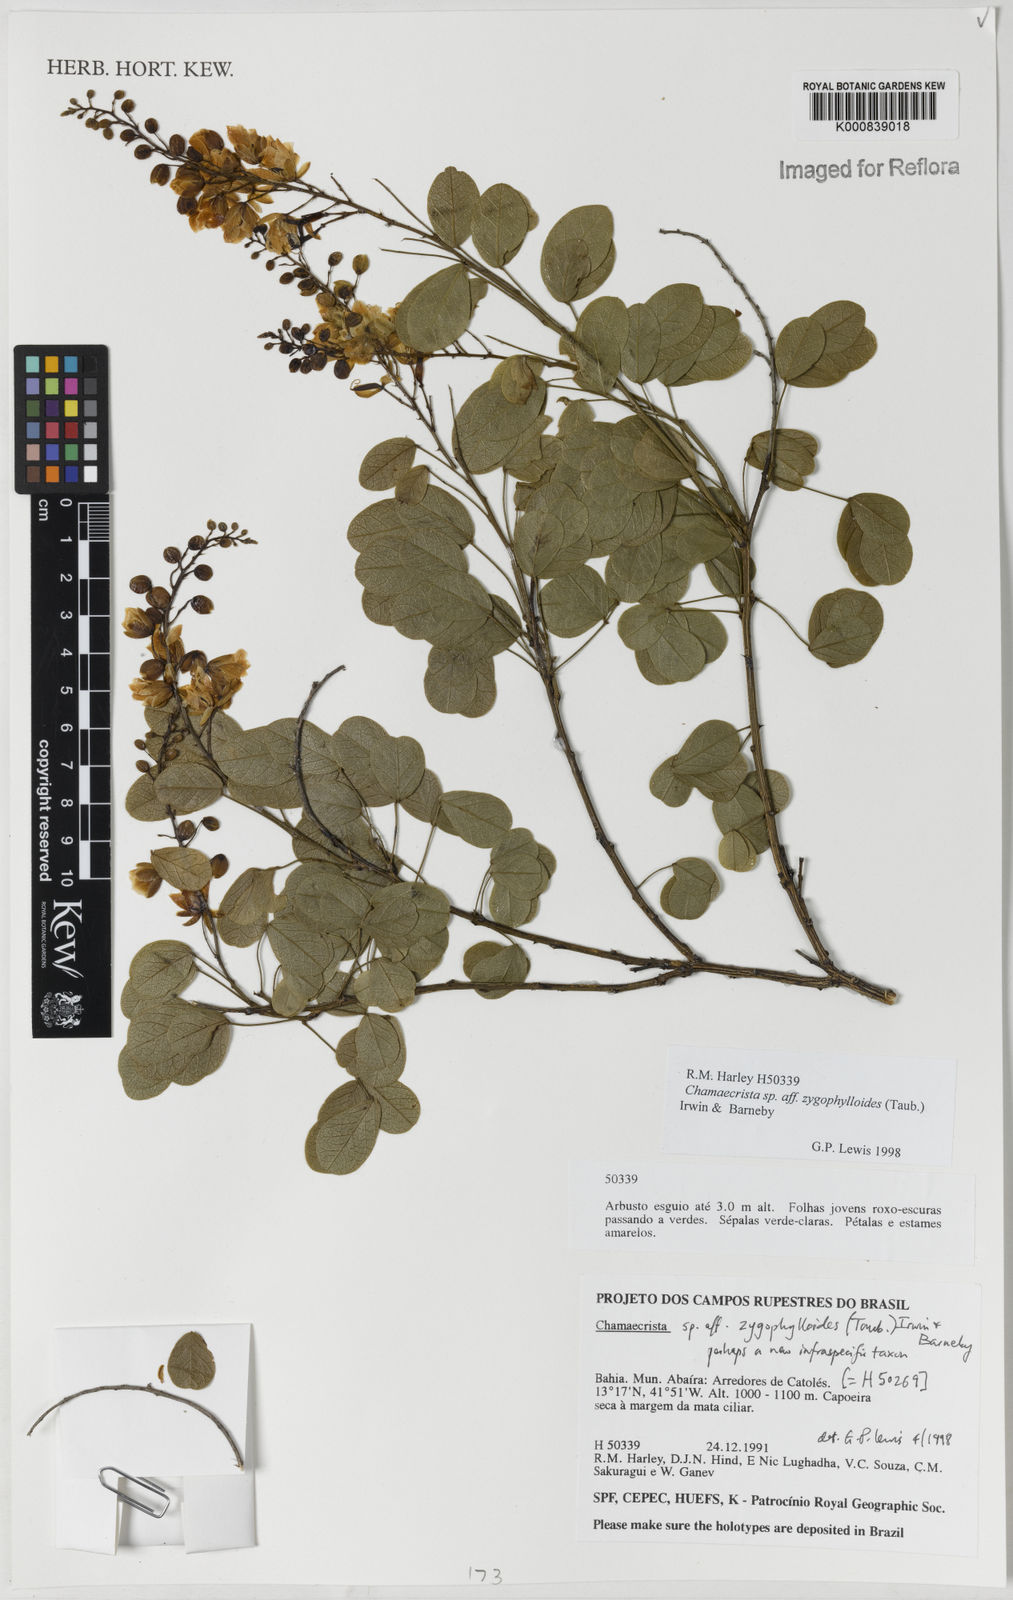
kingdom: Plantae
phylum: Tracheophyta
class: Magnoliopsida
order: Fabales
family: Fabaceae
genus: Chamaecrista
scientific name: Chamaecrista zygophylloides
